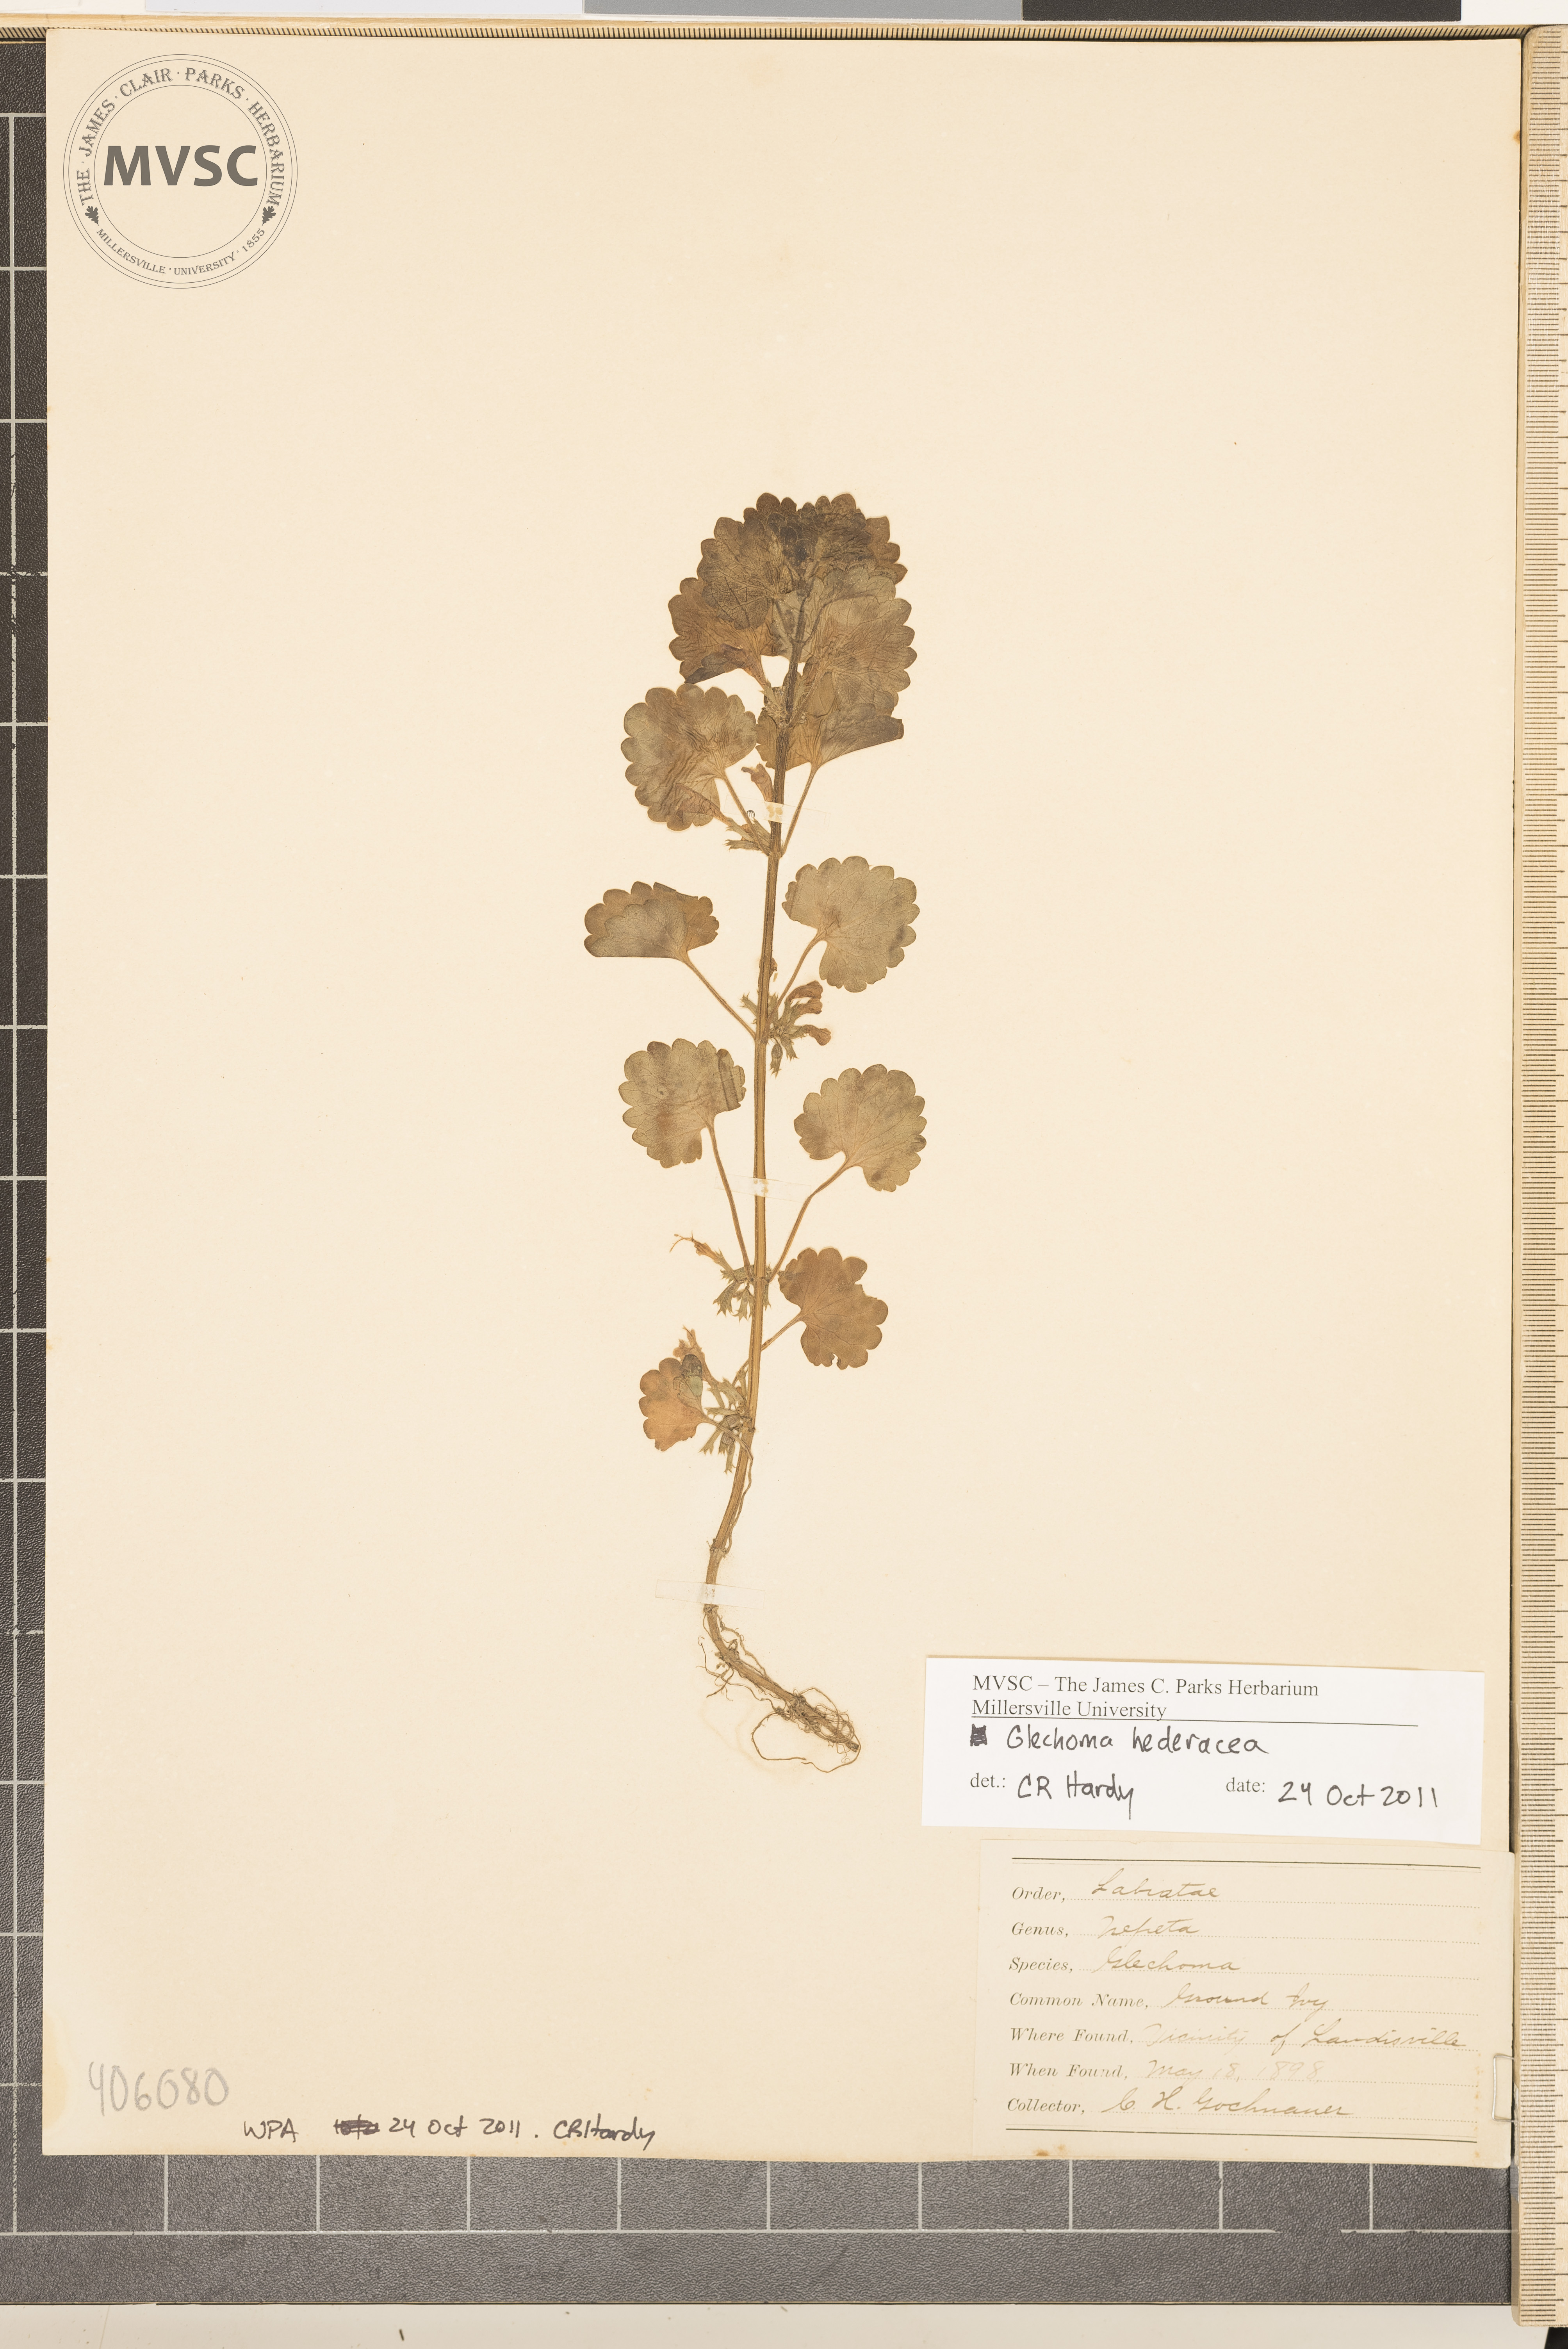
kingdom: Plantae
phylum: Tracheophyta
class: Magnoliopsida
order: Lamiales
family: Lamiaceae
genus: Glechoma
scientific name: Glechoma hederacea
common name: ground ivy
